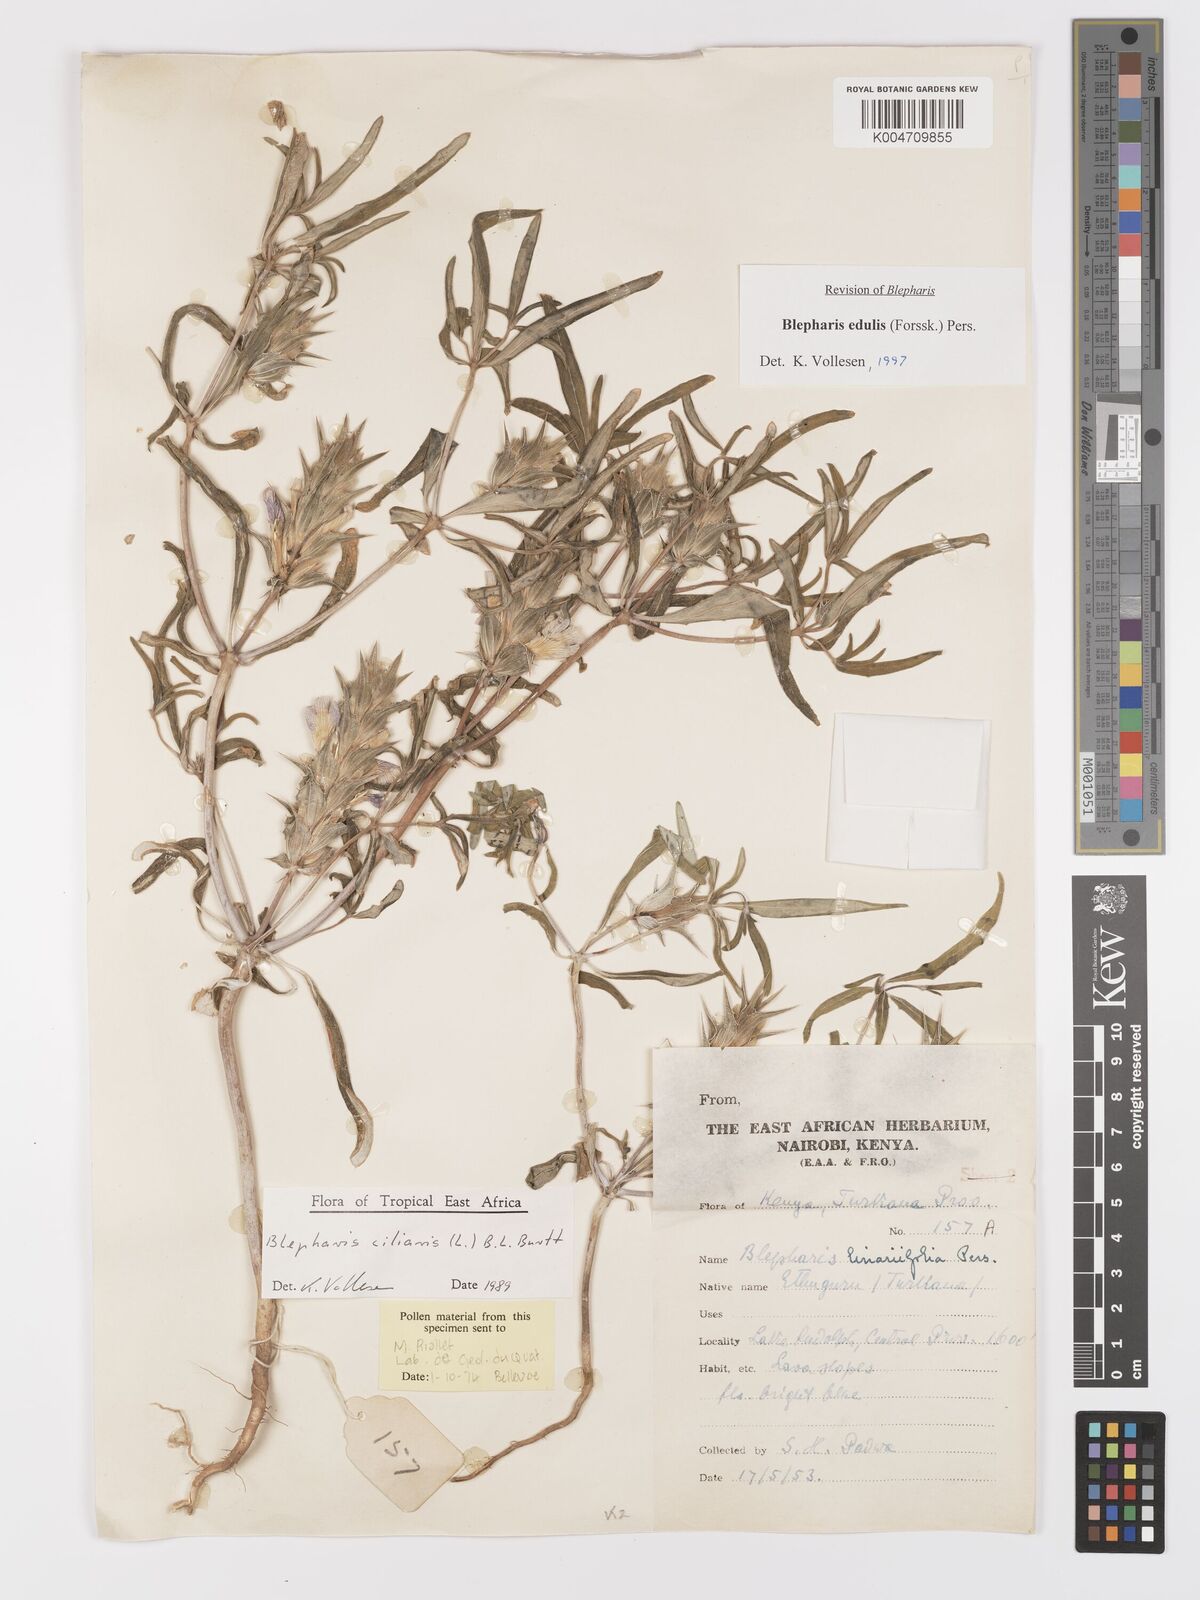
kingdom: Plantae
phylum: Tracheophyta
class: Magnoliopsida
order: Lamiales
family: Acanthaceae
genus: Blepharis
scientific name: Blepharis edulis
